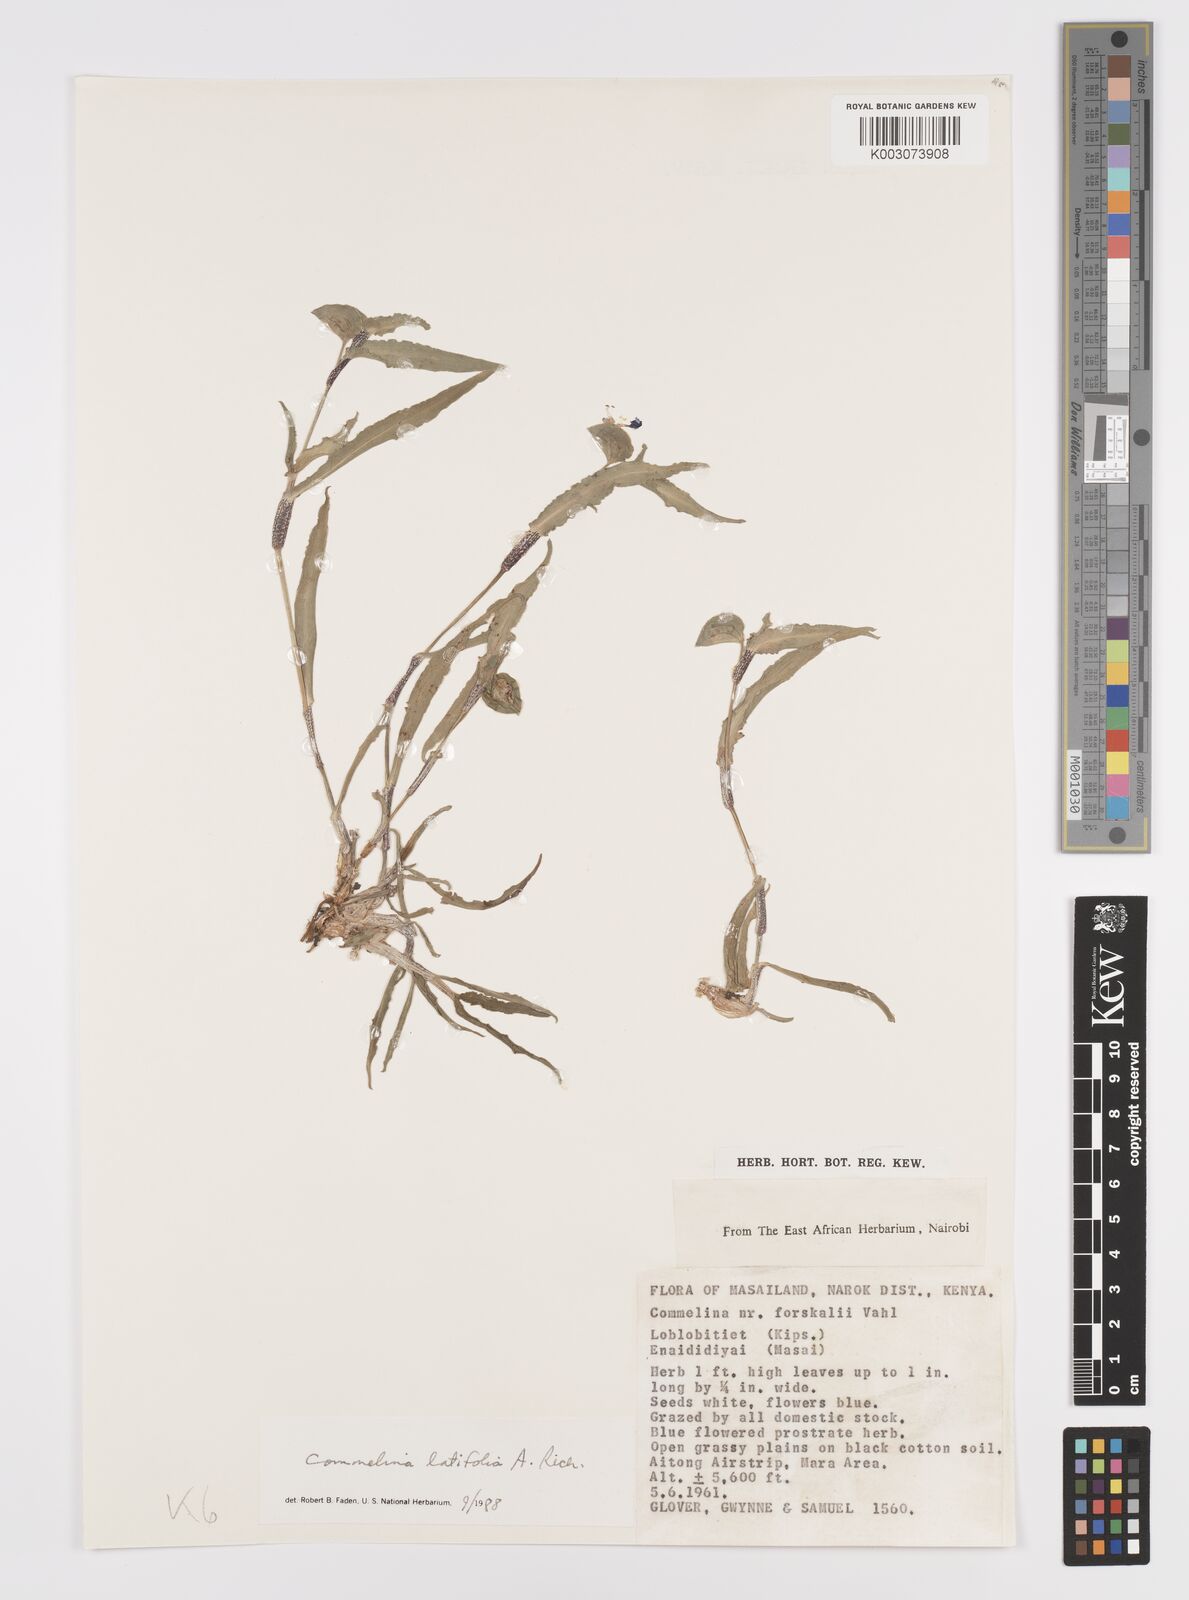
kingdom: Plantae
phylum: Tracheophyta
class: Liliopsida
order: Commelinales
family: Commelinaceae
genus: Commelina
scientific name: Commelina latifolia
